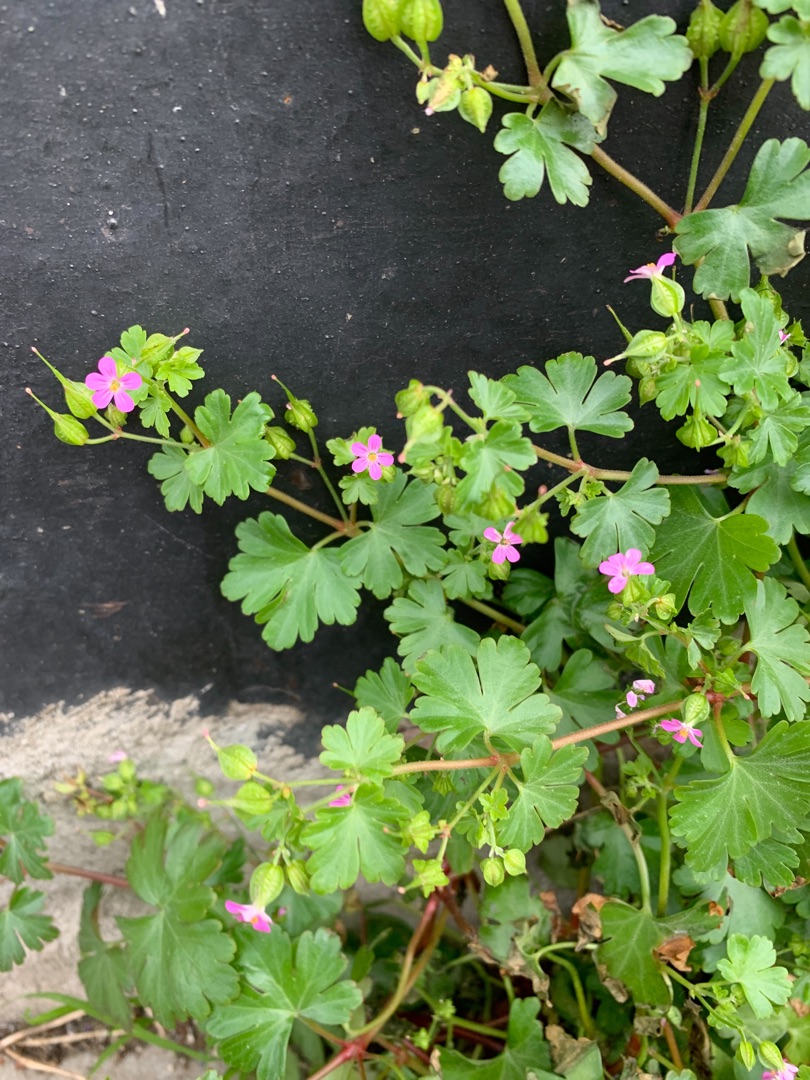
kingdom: Plantae
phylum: Tracheophyta
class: Magnoliopsida
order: Geraniales
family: Geraniaceae
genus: Geranium
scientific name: Geranium lucidum
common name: Skinnende storkenæb
